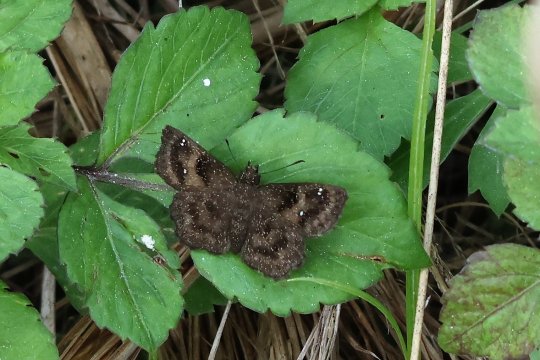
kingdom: Animalia
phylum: Arthropoda
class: Insecta
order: Lepidoptera
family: Hesperiidae
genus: Staphylus
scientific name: Staphylus mazans
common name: Hayhurst's Scallopwing
